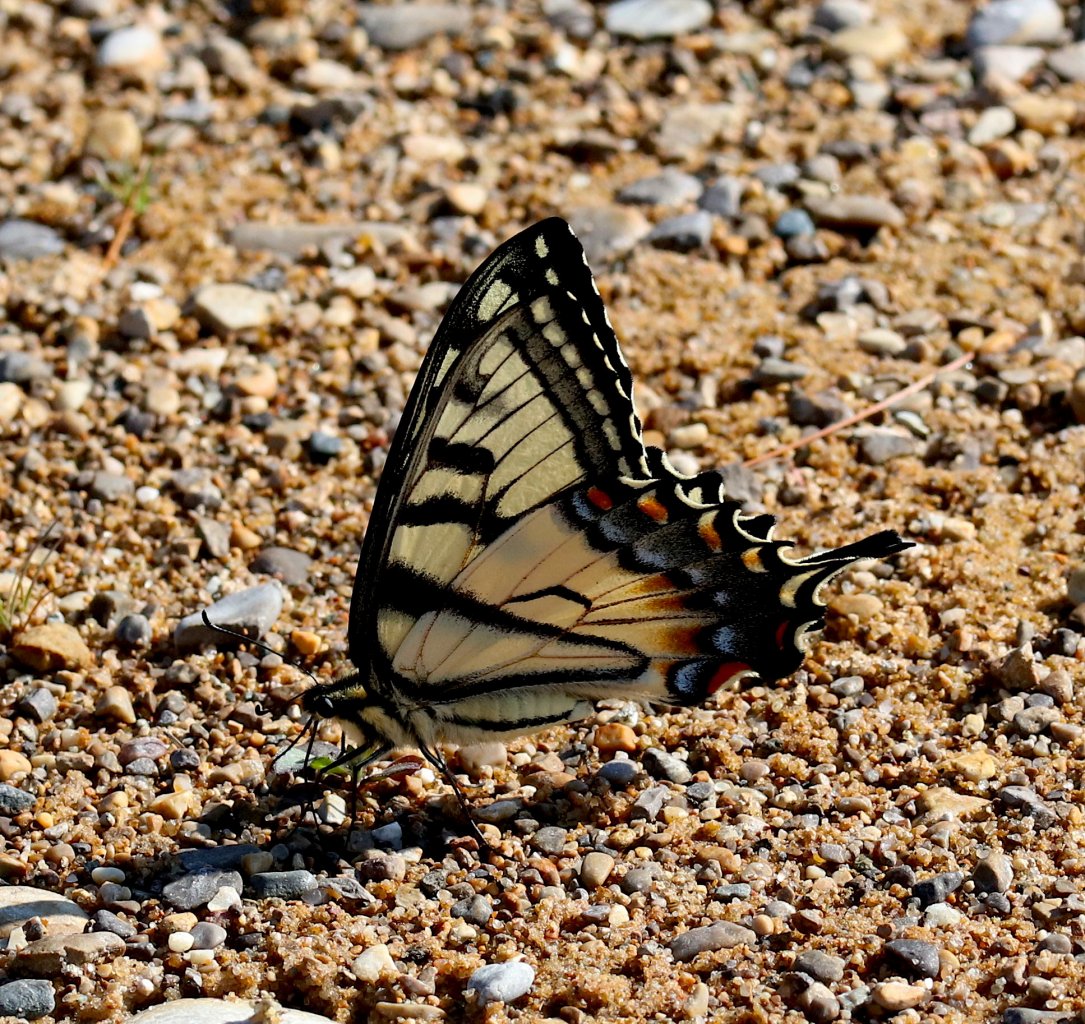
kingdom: Animalia
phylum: Arthropoda
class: Insecta
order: Lepidoptera
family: Papilionidae
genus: Pterourus
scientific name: Pterourus glaucus
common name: Eastern Tiger Swallowtail
